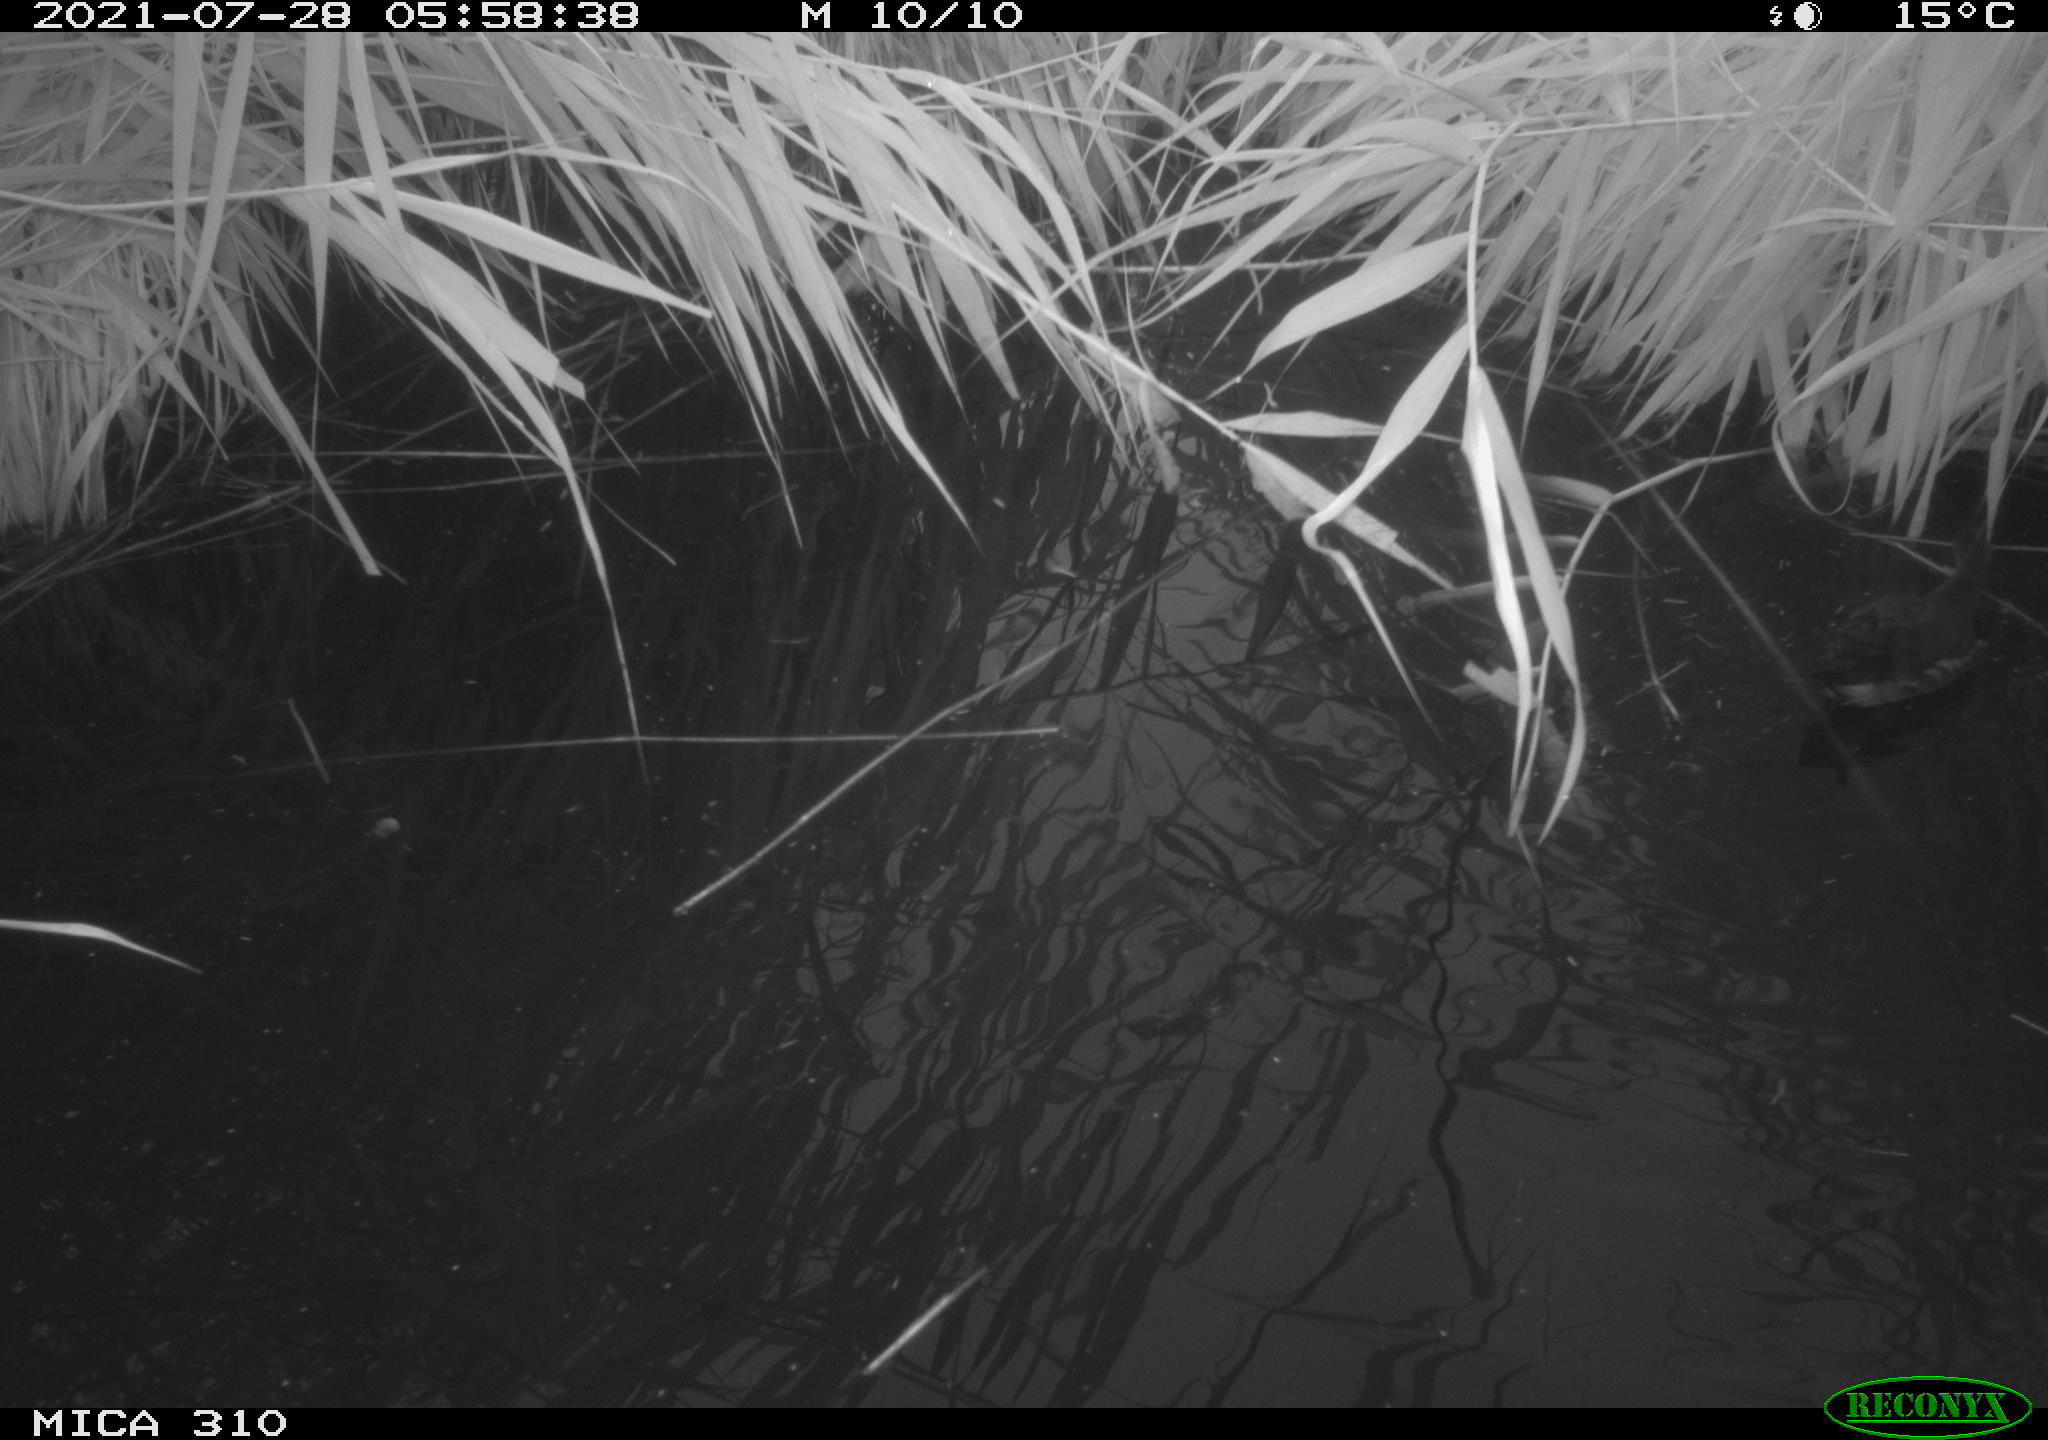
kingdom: Animalia
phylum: Chordata
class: Aves
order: Gruiformes
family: Rallidae
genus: Fulica
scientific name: Fulica atra
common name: Eurasian coot
